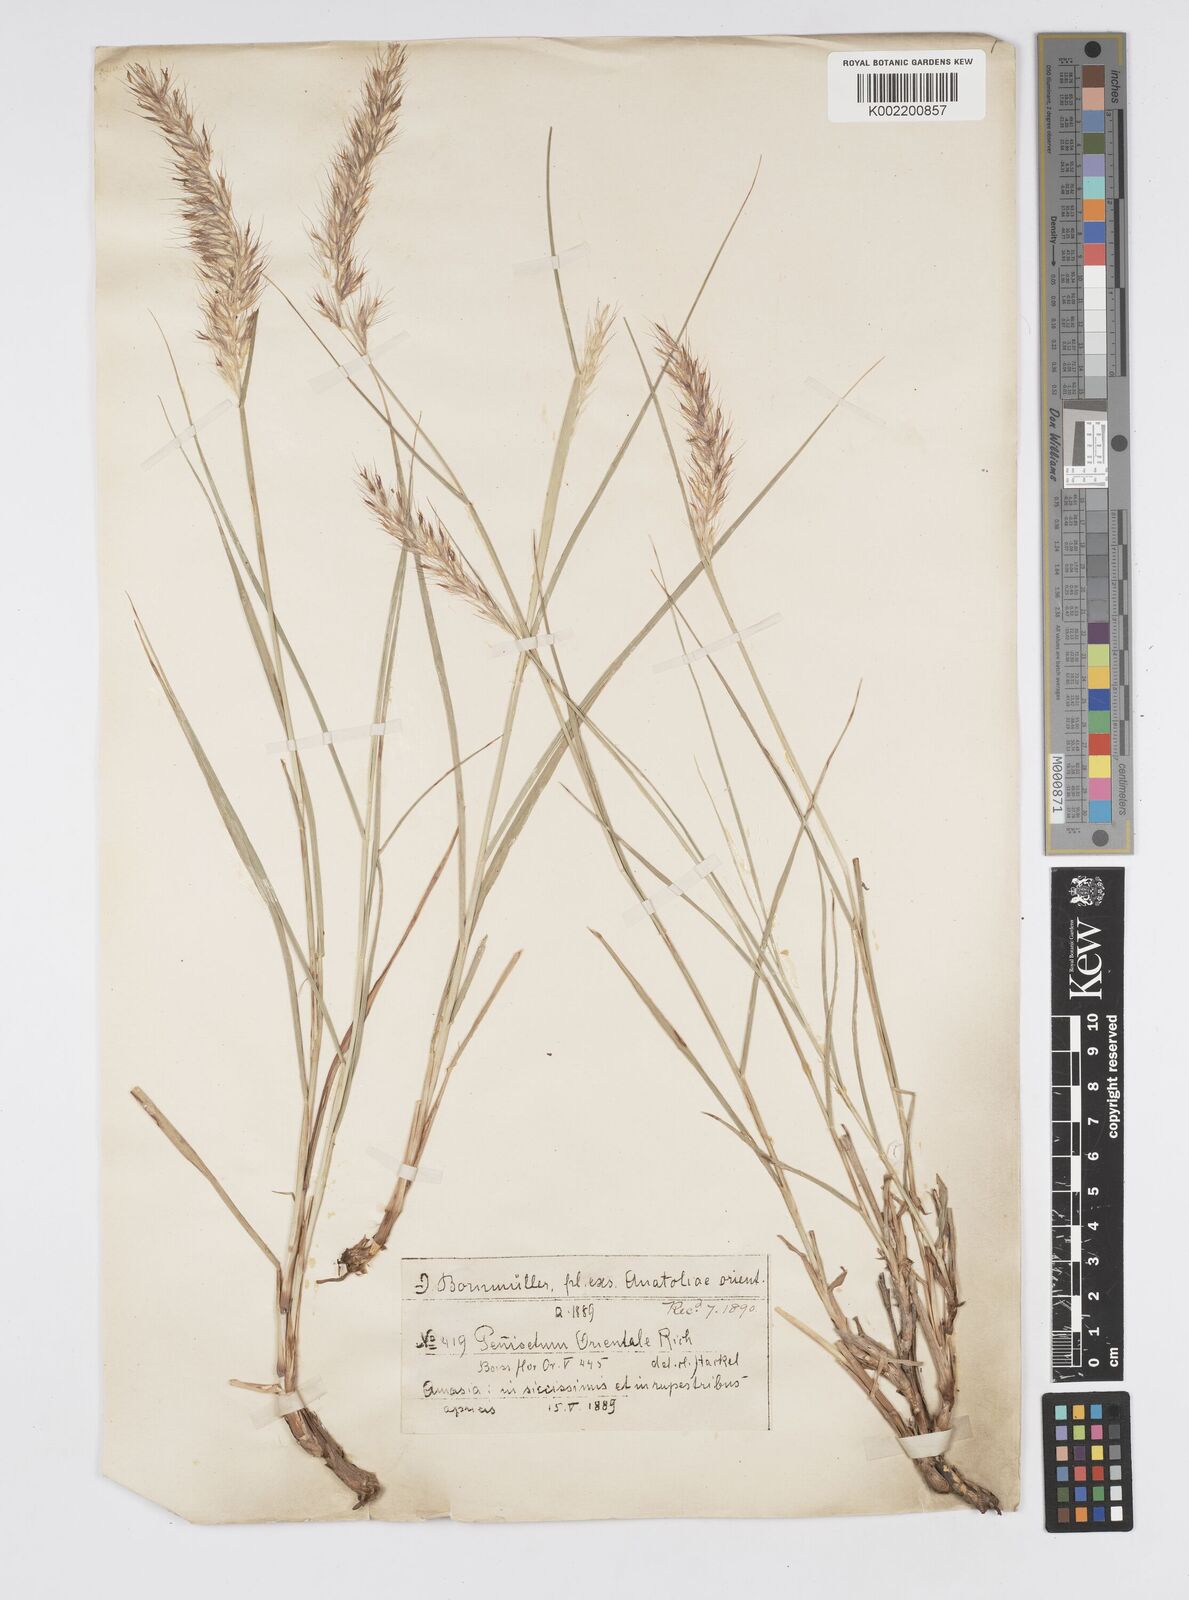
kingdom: Plantae
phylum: Tracheophyta
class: Liliopsida
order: Poales
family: Poaceae
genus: Cenchrus
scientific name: Cenchrus orientalis
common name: Oriental fountain grass
